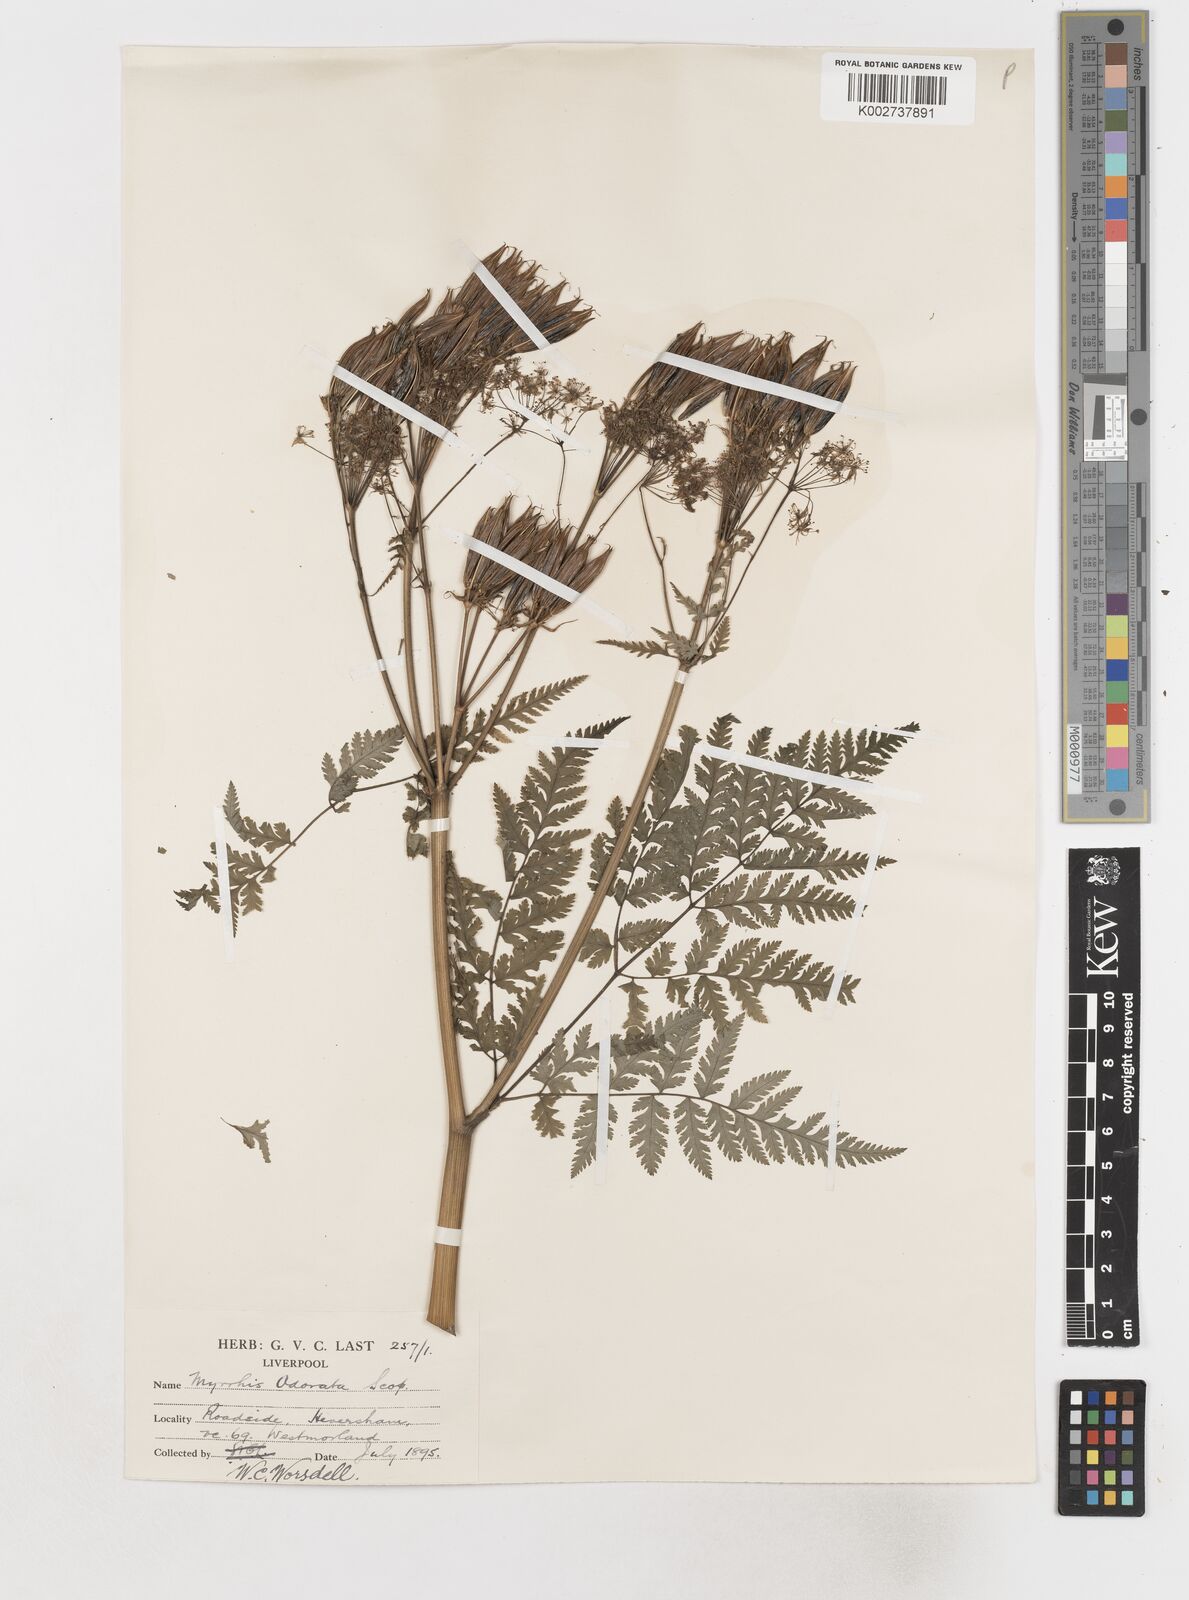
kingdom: Plantae
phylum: Tracheophyta
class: Magnoliopsida
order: Apiales
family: Apiaceae
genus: Myrrhis
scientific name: Myrrhis odorata
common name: Sweet cicely
